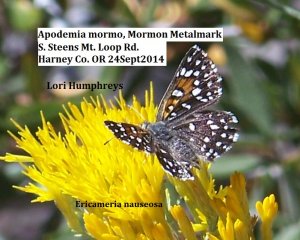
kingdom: Animalia
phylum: Arthropoda
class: Insecta
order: Lepidoptera
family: Riodinidae
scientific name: Riodinidae
